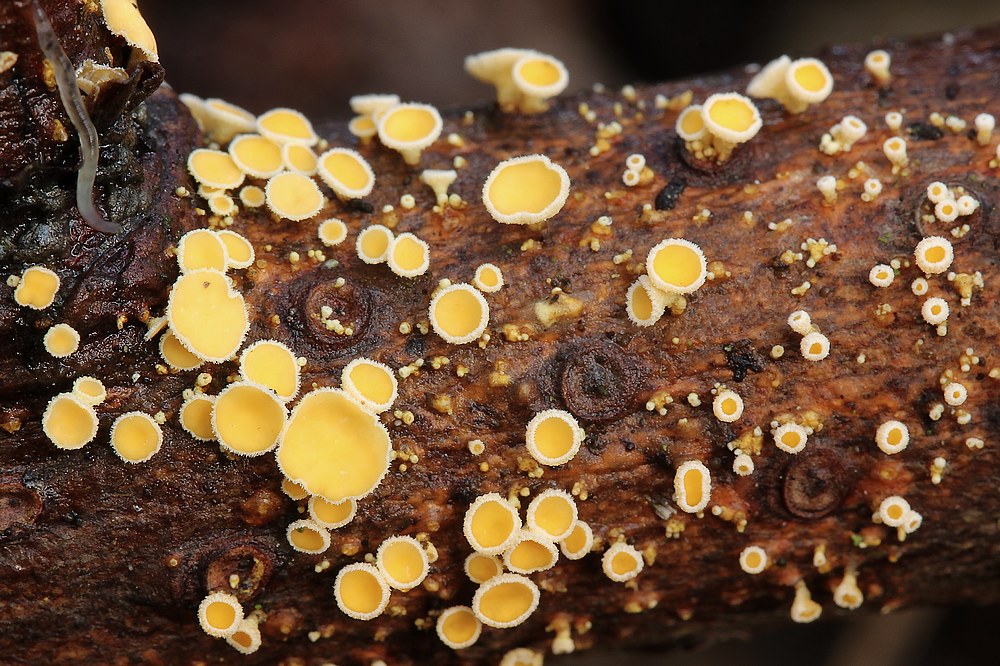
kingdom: Fungi
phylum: Ascomycota
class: Leotiomycetes
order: Helotiales
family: Lachnaceae
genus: Lachnellula
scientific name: Lachnellula subtilissima
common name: gran-frynseskive
